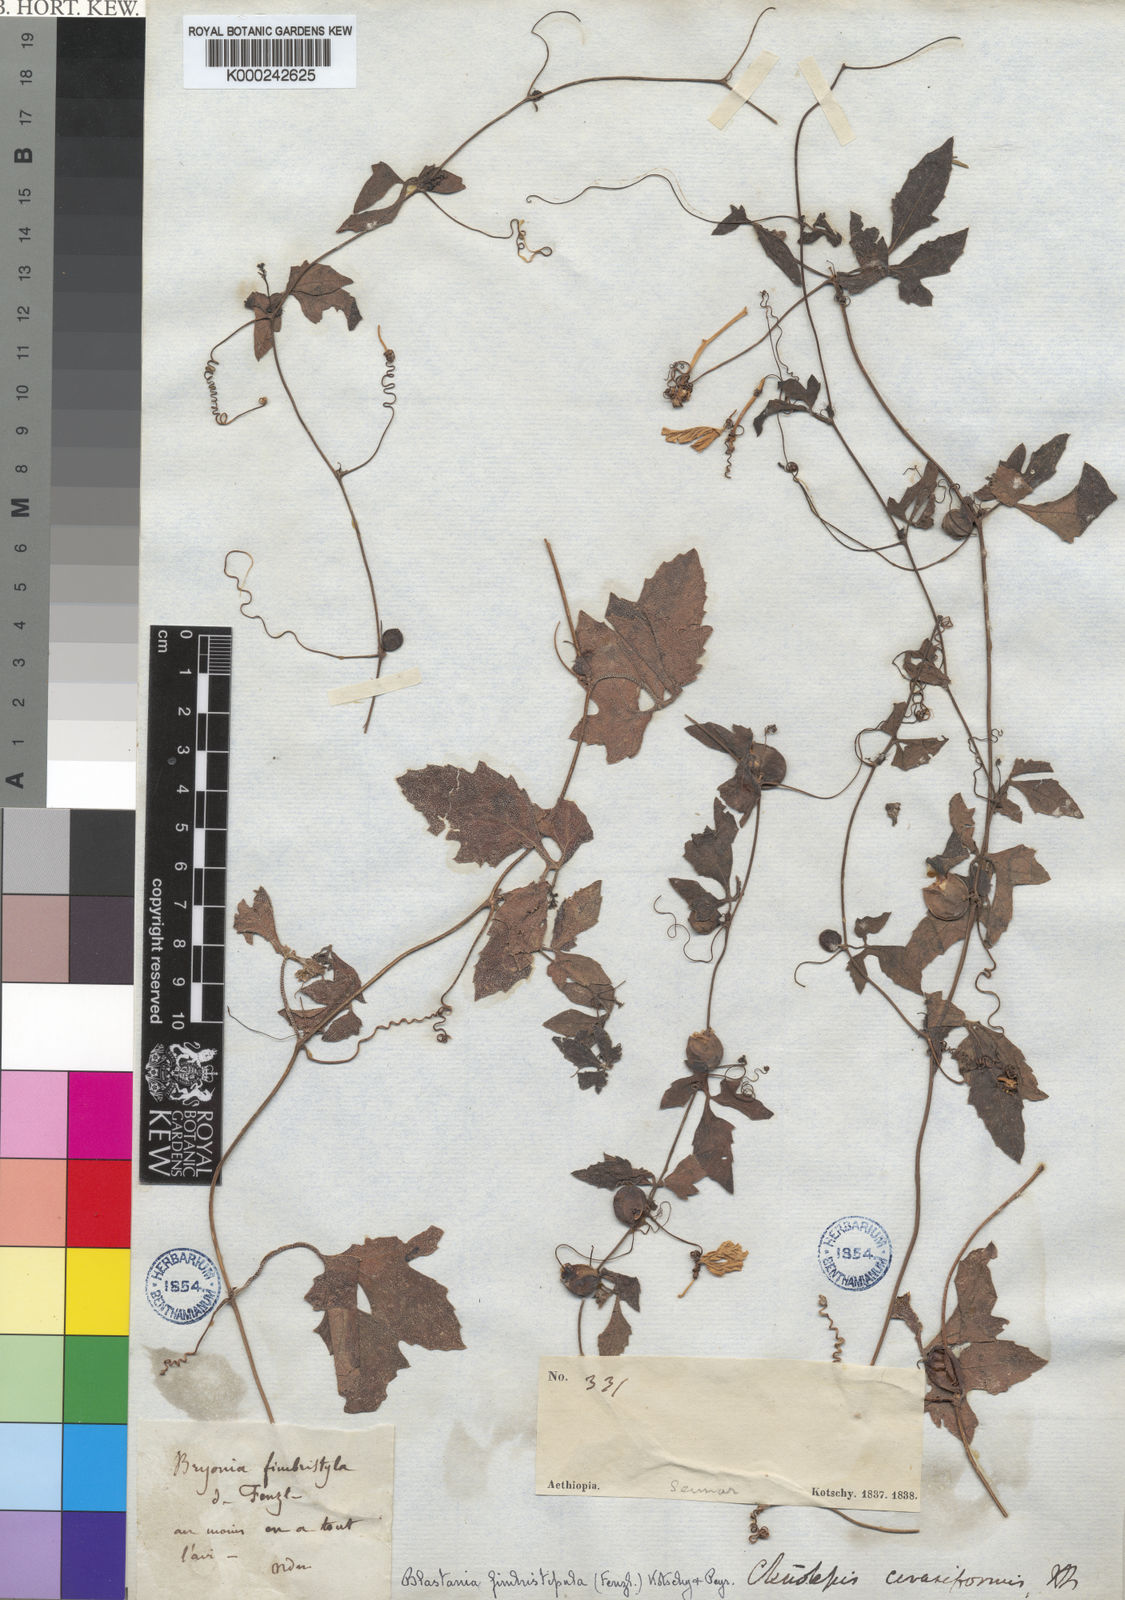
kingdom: Plantae
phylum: Tracheophyta
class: Magnoliopsida
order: Cucurbitales
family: Cucurbitaceae
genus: Blastania
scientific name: Blastania
